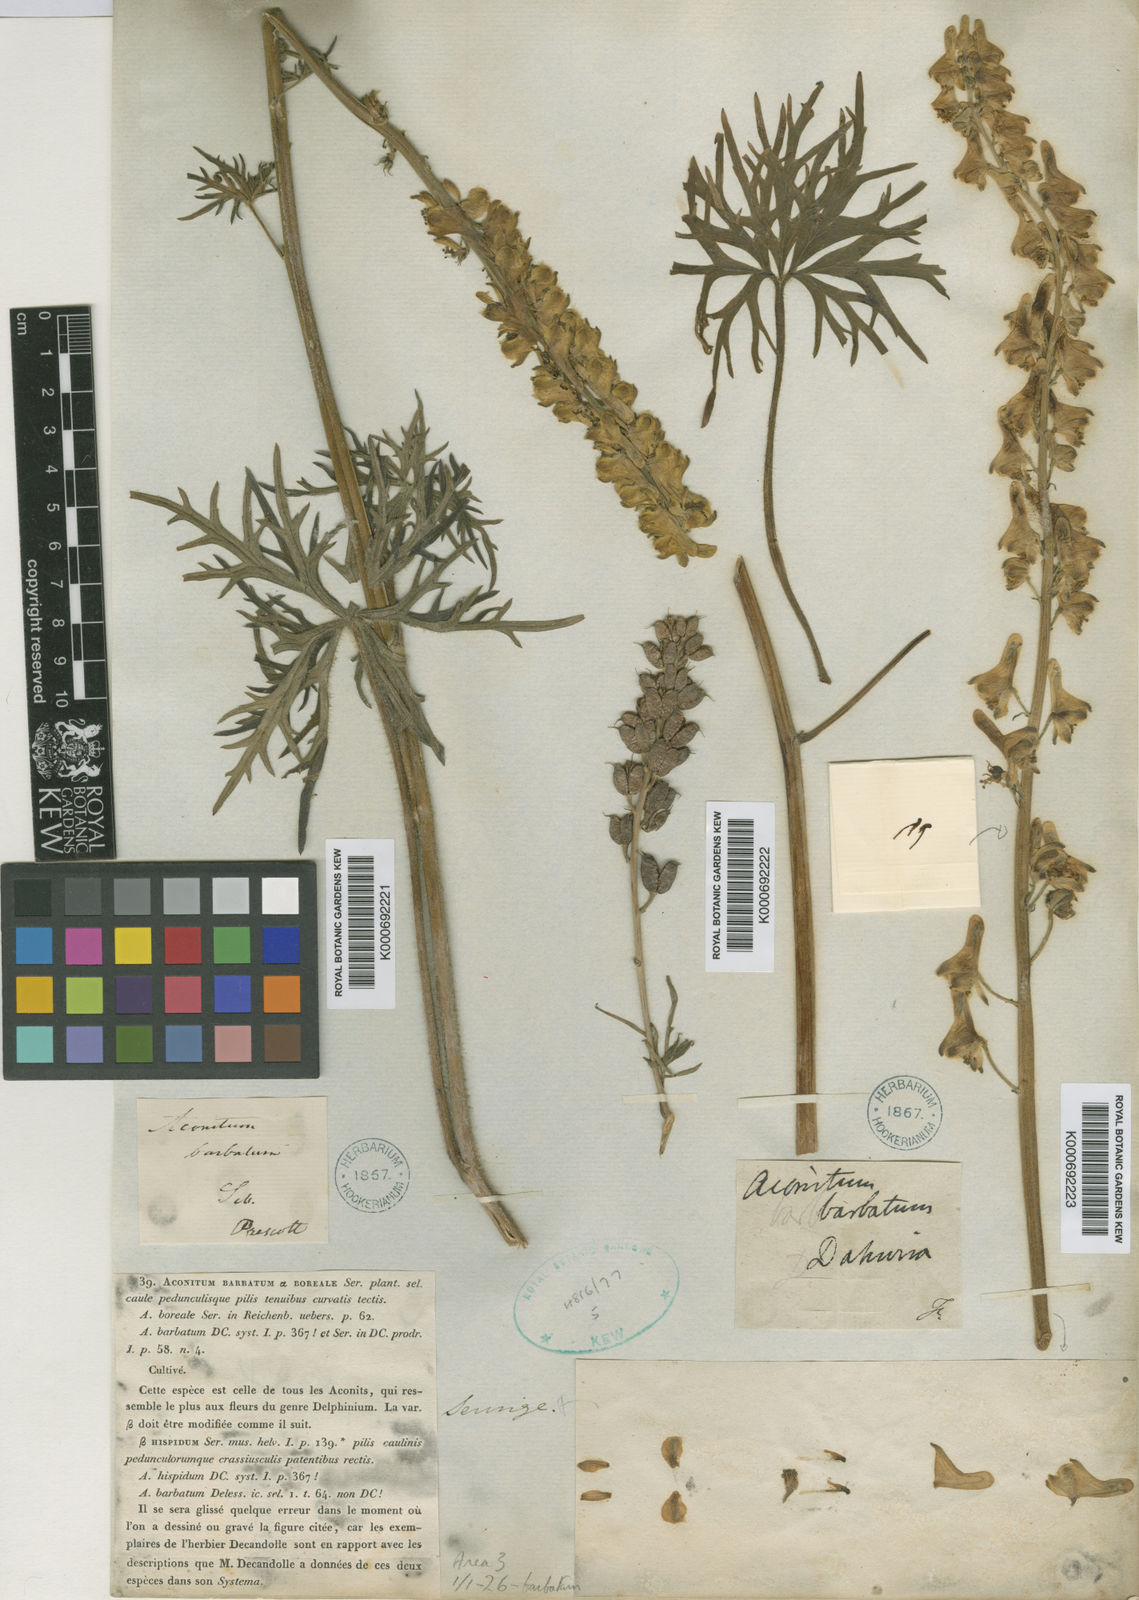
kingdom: Plantae
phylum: Tracheophyta
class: Magnoliopsida
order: Ranunculales
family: Ranunculaceae
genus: Aconitum
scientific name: Aconitum barbatum
